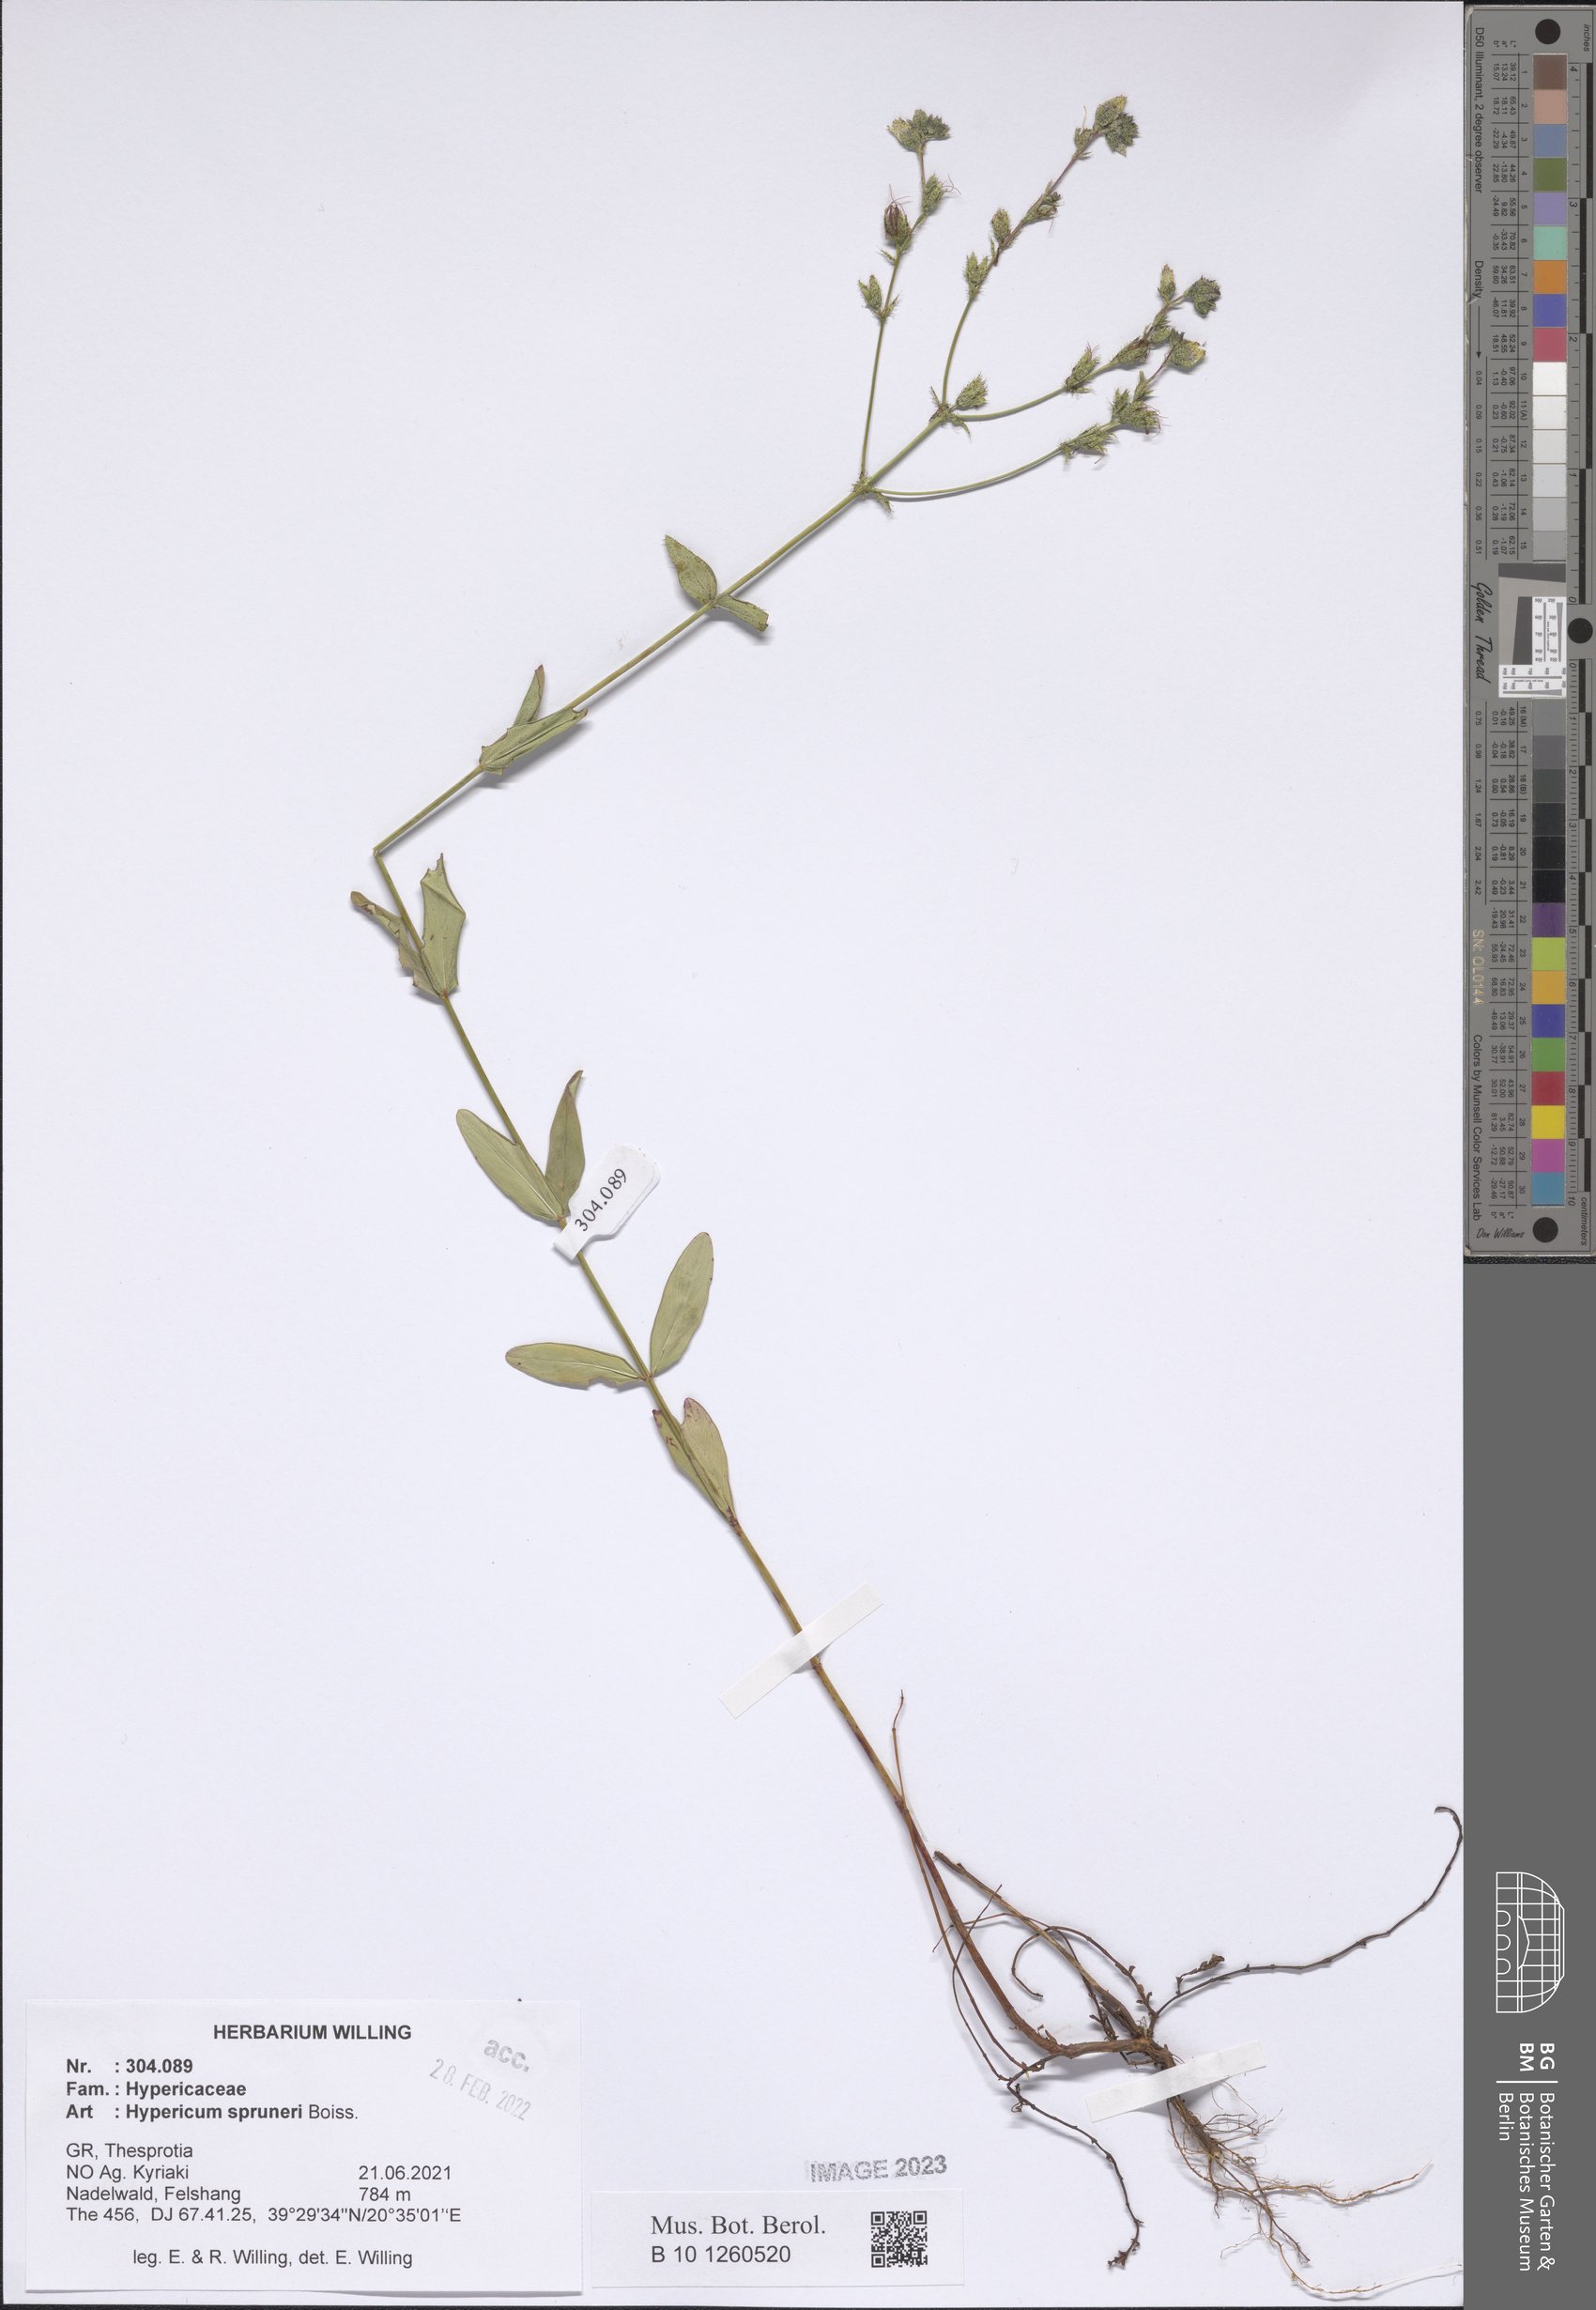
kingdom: Plantae
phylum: Tracheophyta
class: Magnoliopsida
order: Malpighiales
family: Hypericaceae
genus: Hypericum
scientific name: Hypericum spruneri
